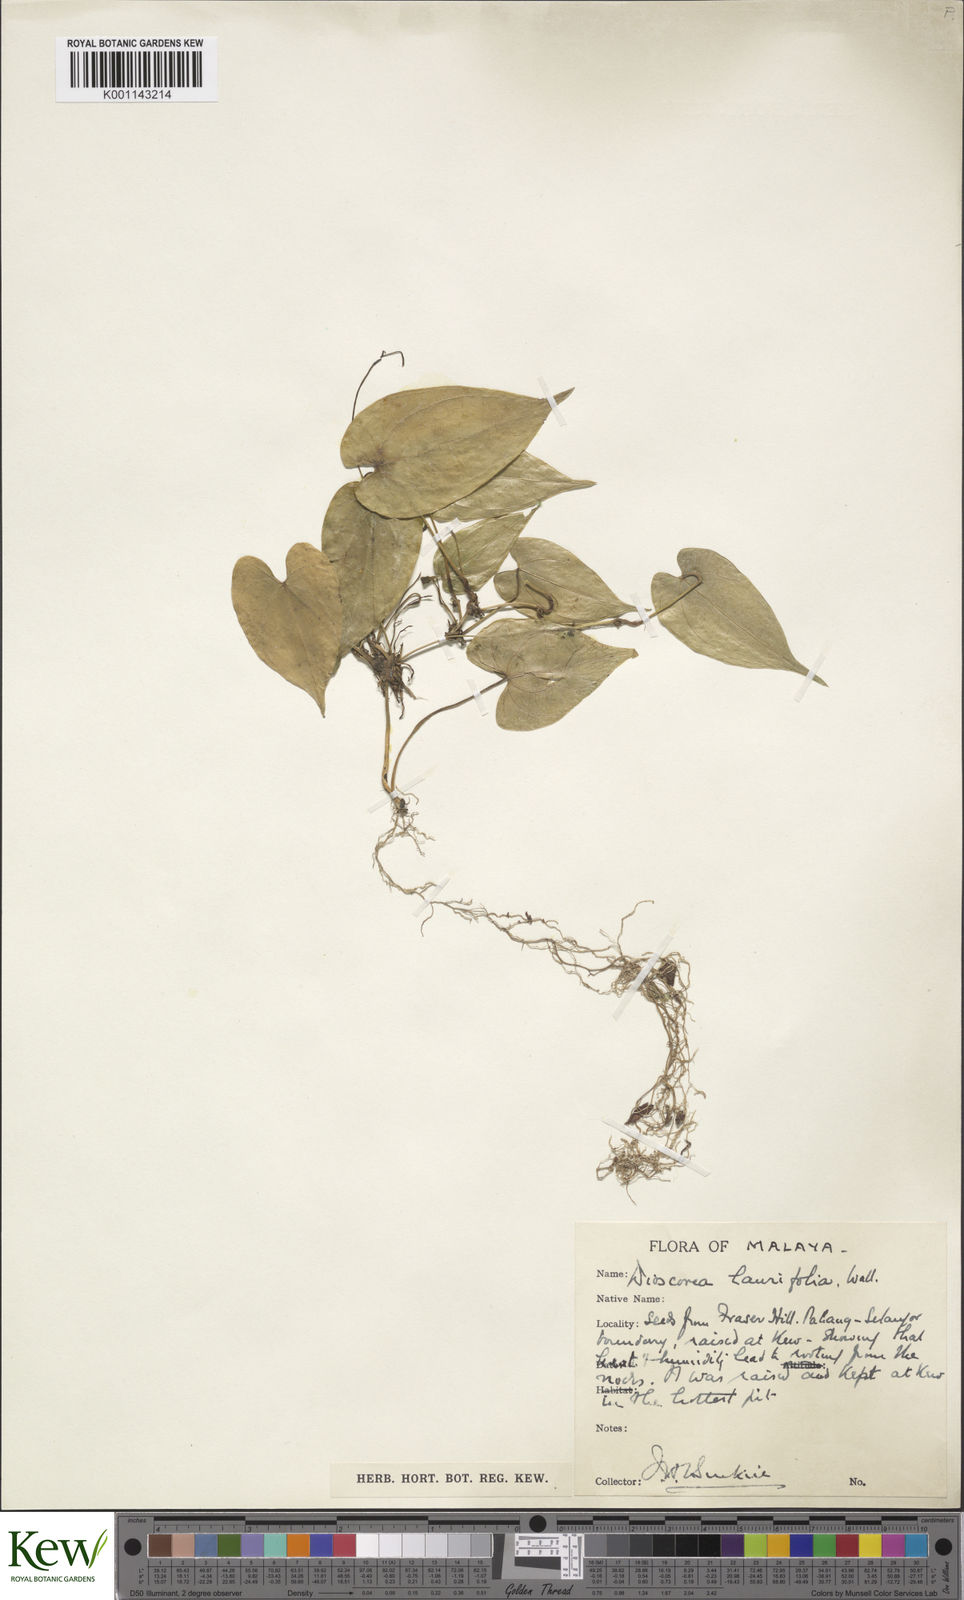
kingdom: Plantae
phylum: Tracheophyta
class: Liliopsida
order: Dioscoreales
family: Dioscoreaceae
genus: Dioscorea
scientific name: Dioscorea laurifolia
